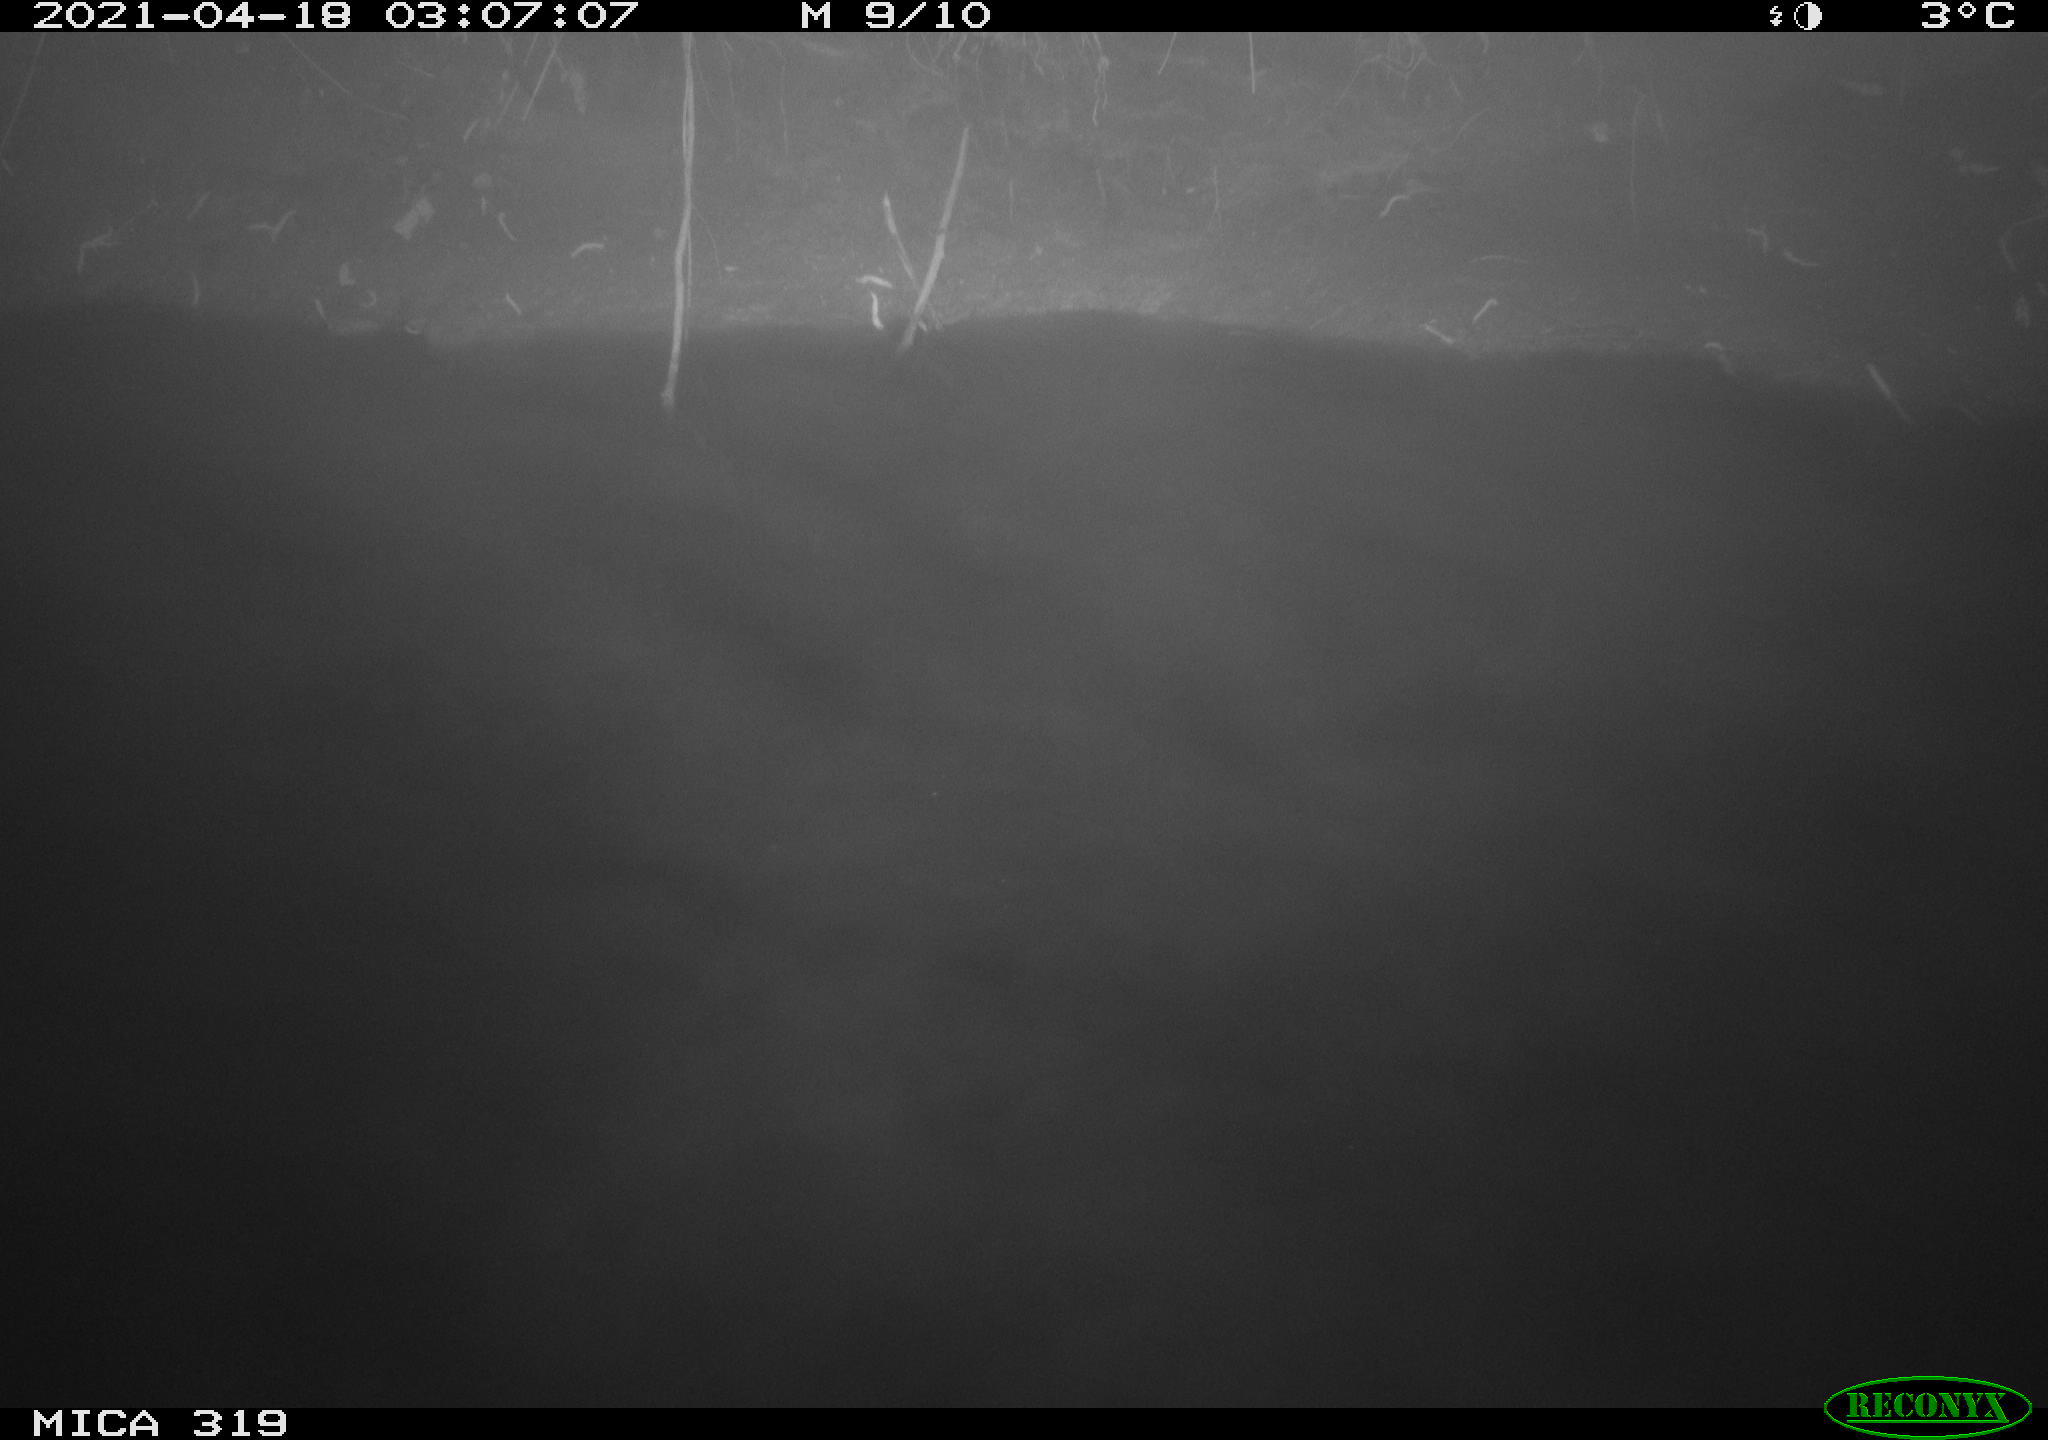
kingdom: Animalia
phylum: Chordata
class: Aves
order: Anseriformes
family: Anatidae
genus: Anas
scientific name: Anas platyrhynchos
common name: Mallard
